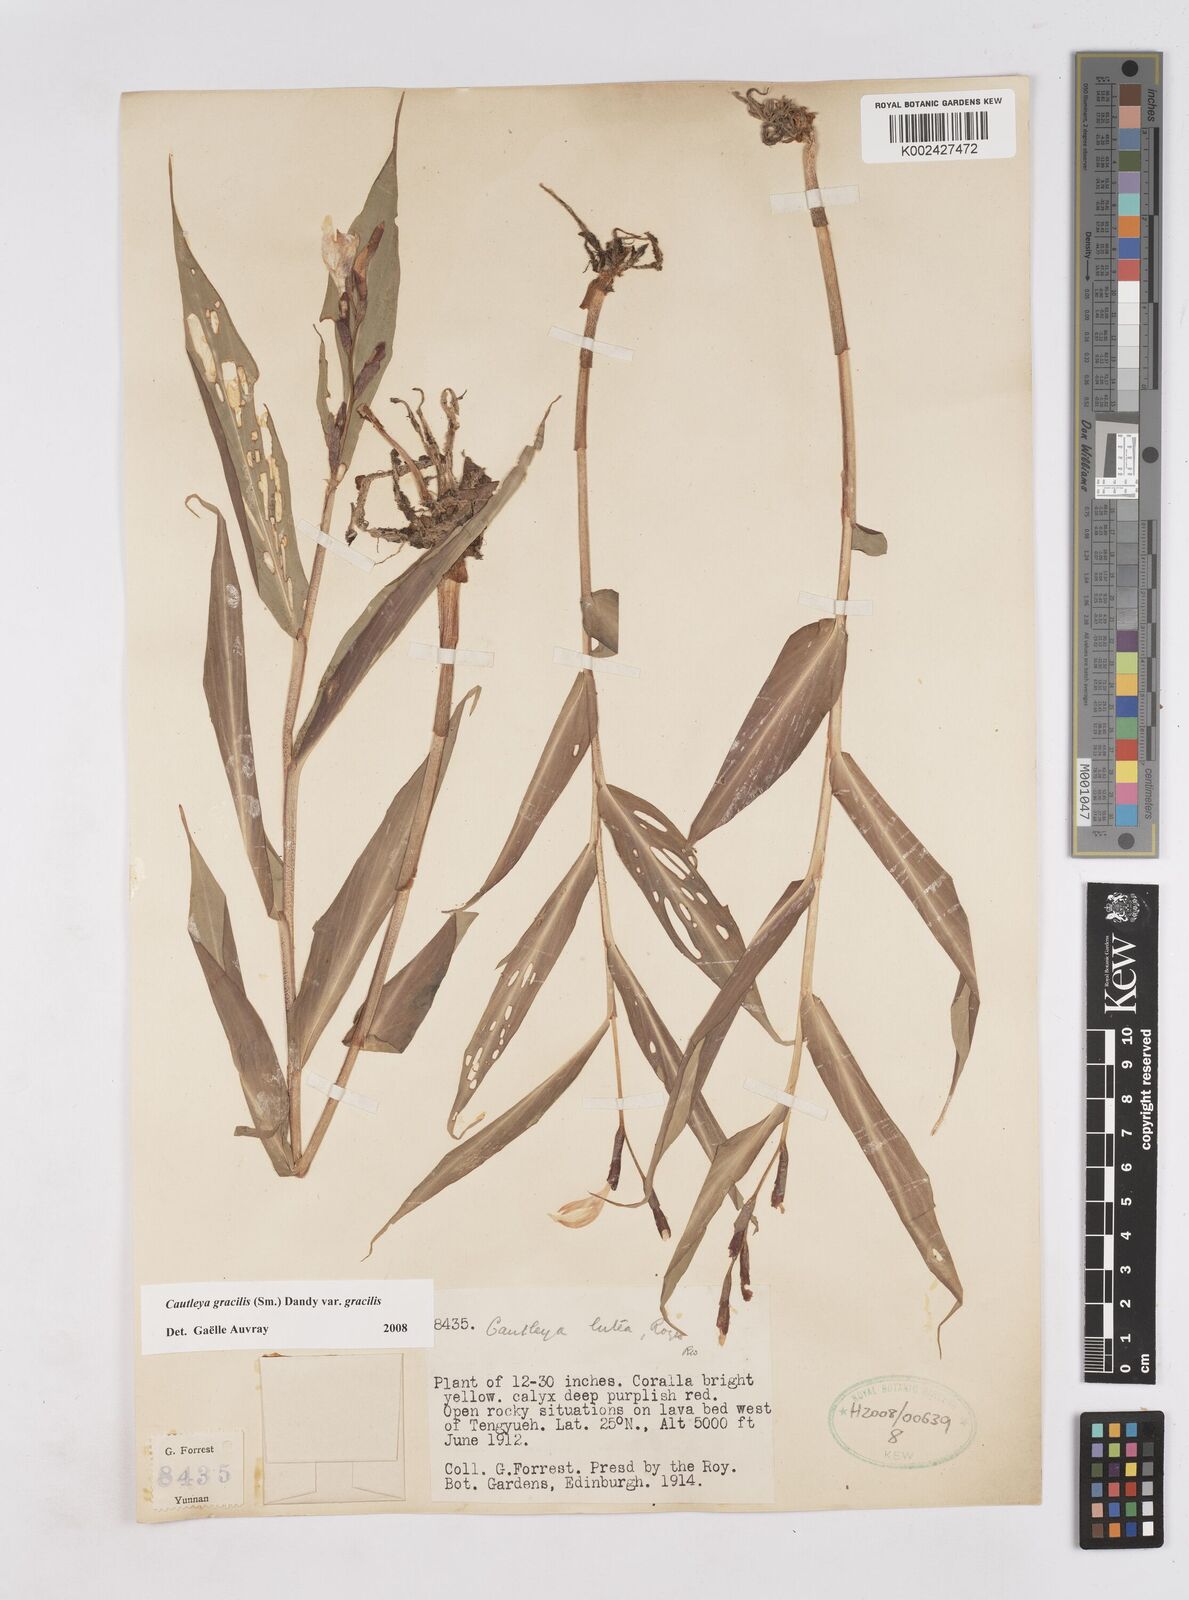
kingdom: Plantae
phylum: Tracheophyta
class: Liliopsida
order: Zingiberales
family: Zingiberaceae
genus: Cautleya
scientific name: Cautleya gracilis
